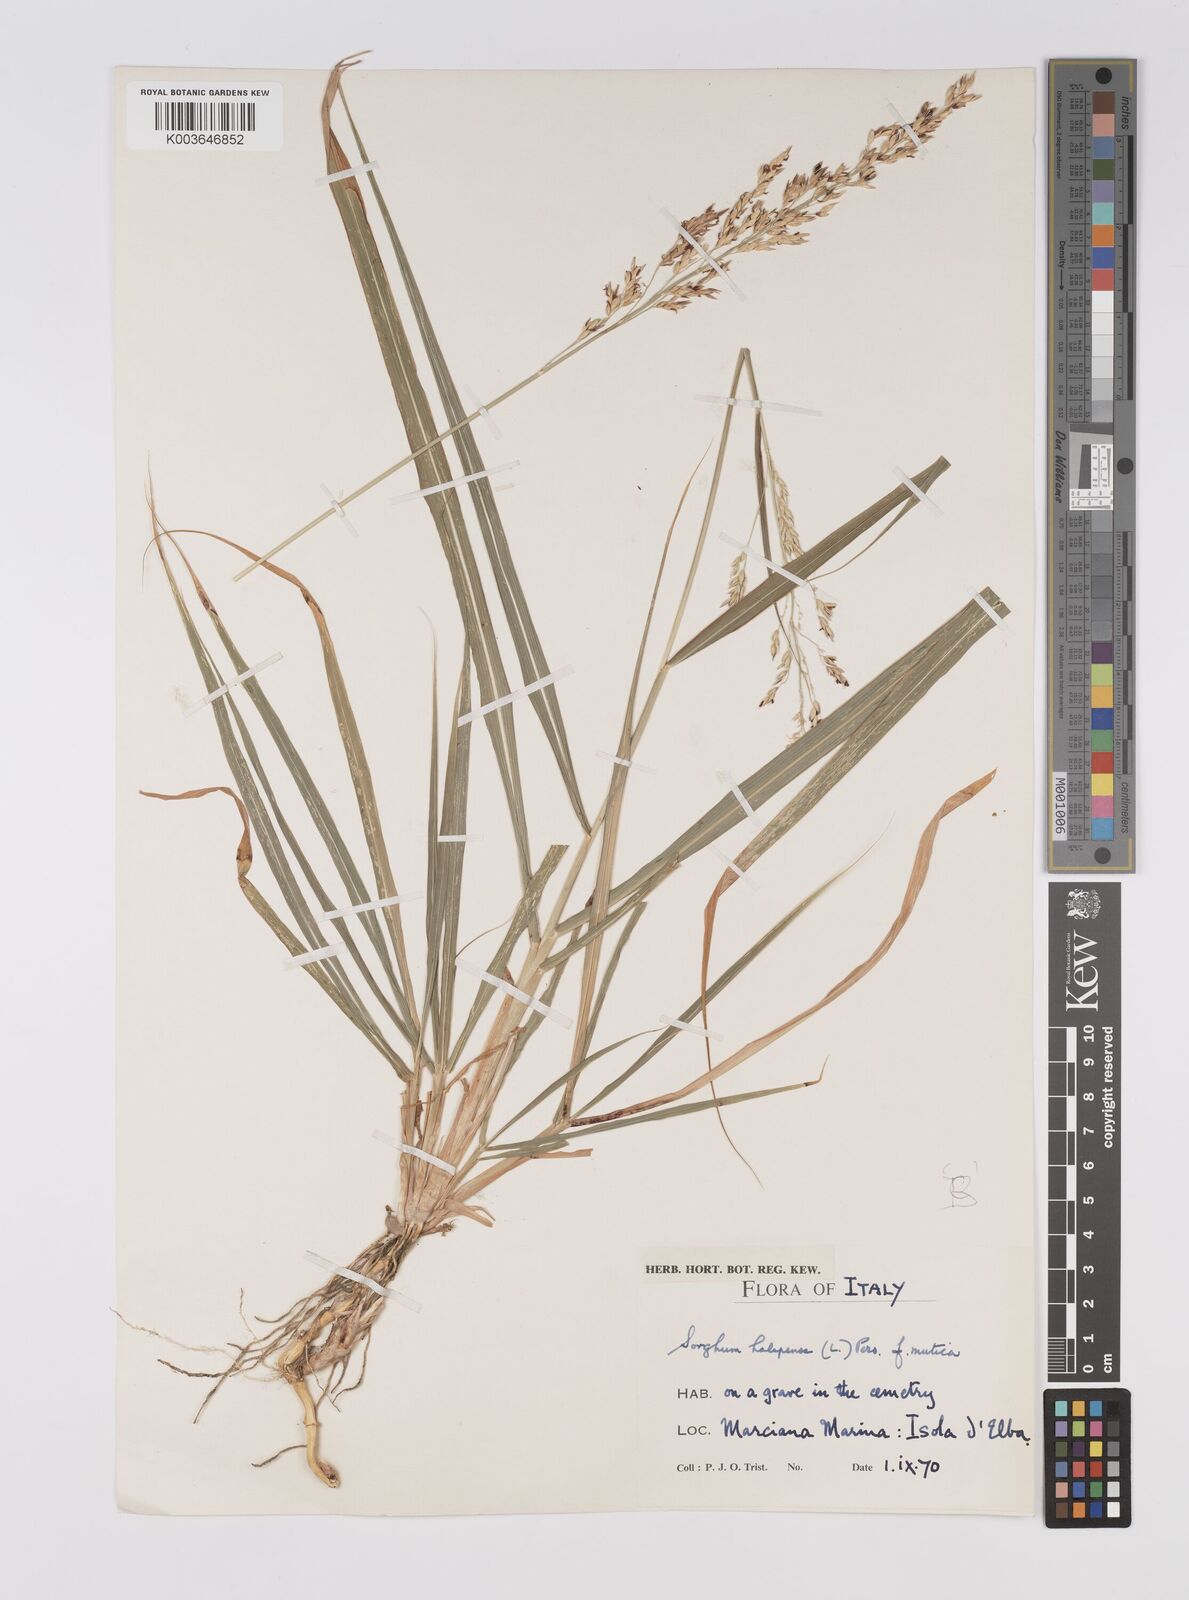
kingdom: Plantae
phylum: Tracheophyta
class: Liliopsida
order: Poales
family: Poaceae
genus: Sorghum
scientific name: Sorghum halepense
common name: Johnson-grass
